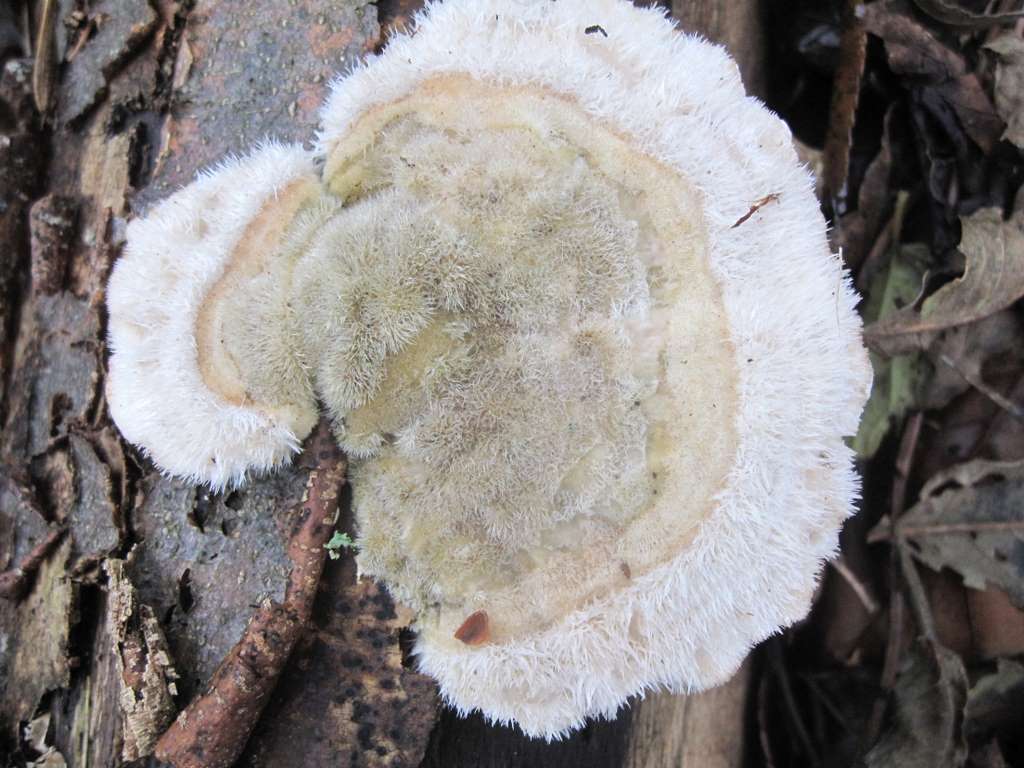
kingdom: Fungi
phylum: Basidiomycota
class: Agaricomycetes
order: Polyporales
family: Polyporaceae
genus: Trametes
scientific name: Trametes hirsuta
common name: håret læderporesvamp
